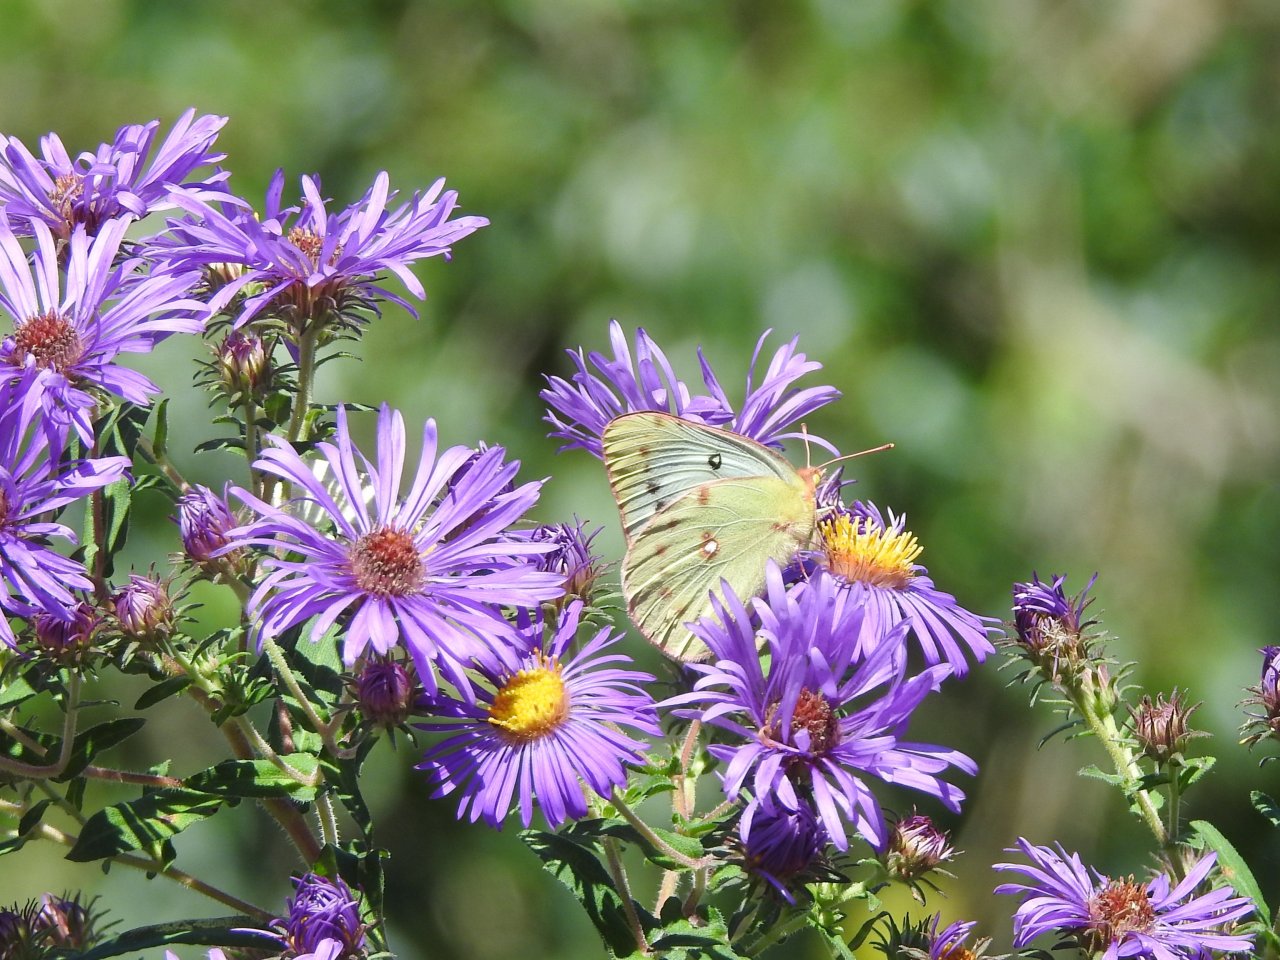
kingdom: Animalia
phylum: Arthropoda
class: Insecta
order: Lepidoptera
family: Pieridae
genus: Colias
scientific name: Colias
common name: Clouded Yellows
